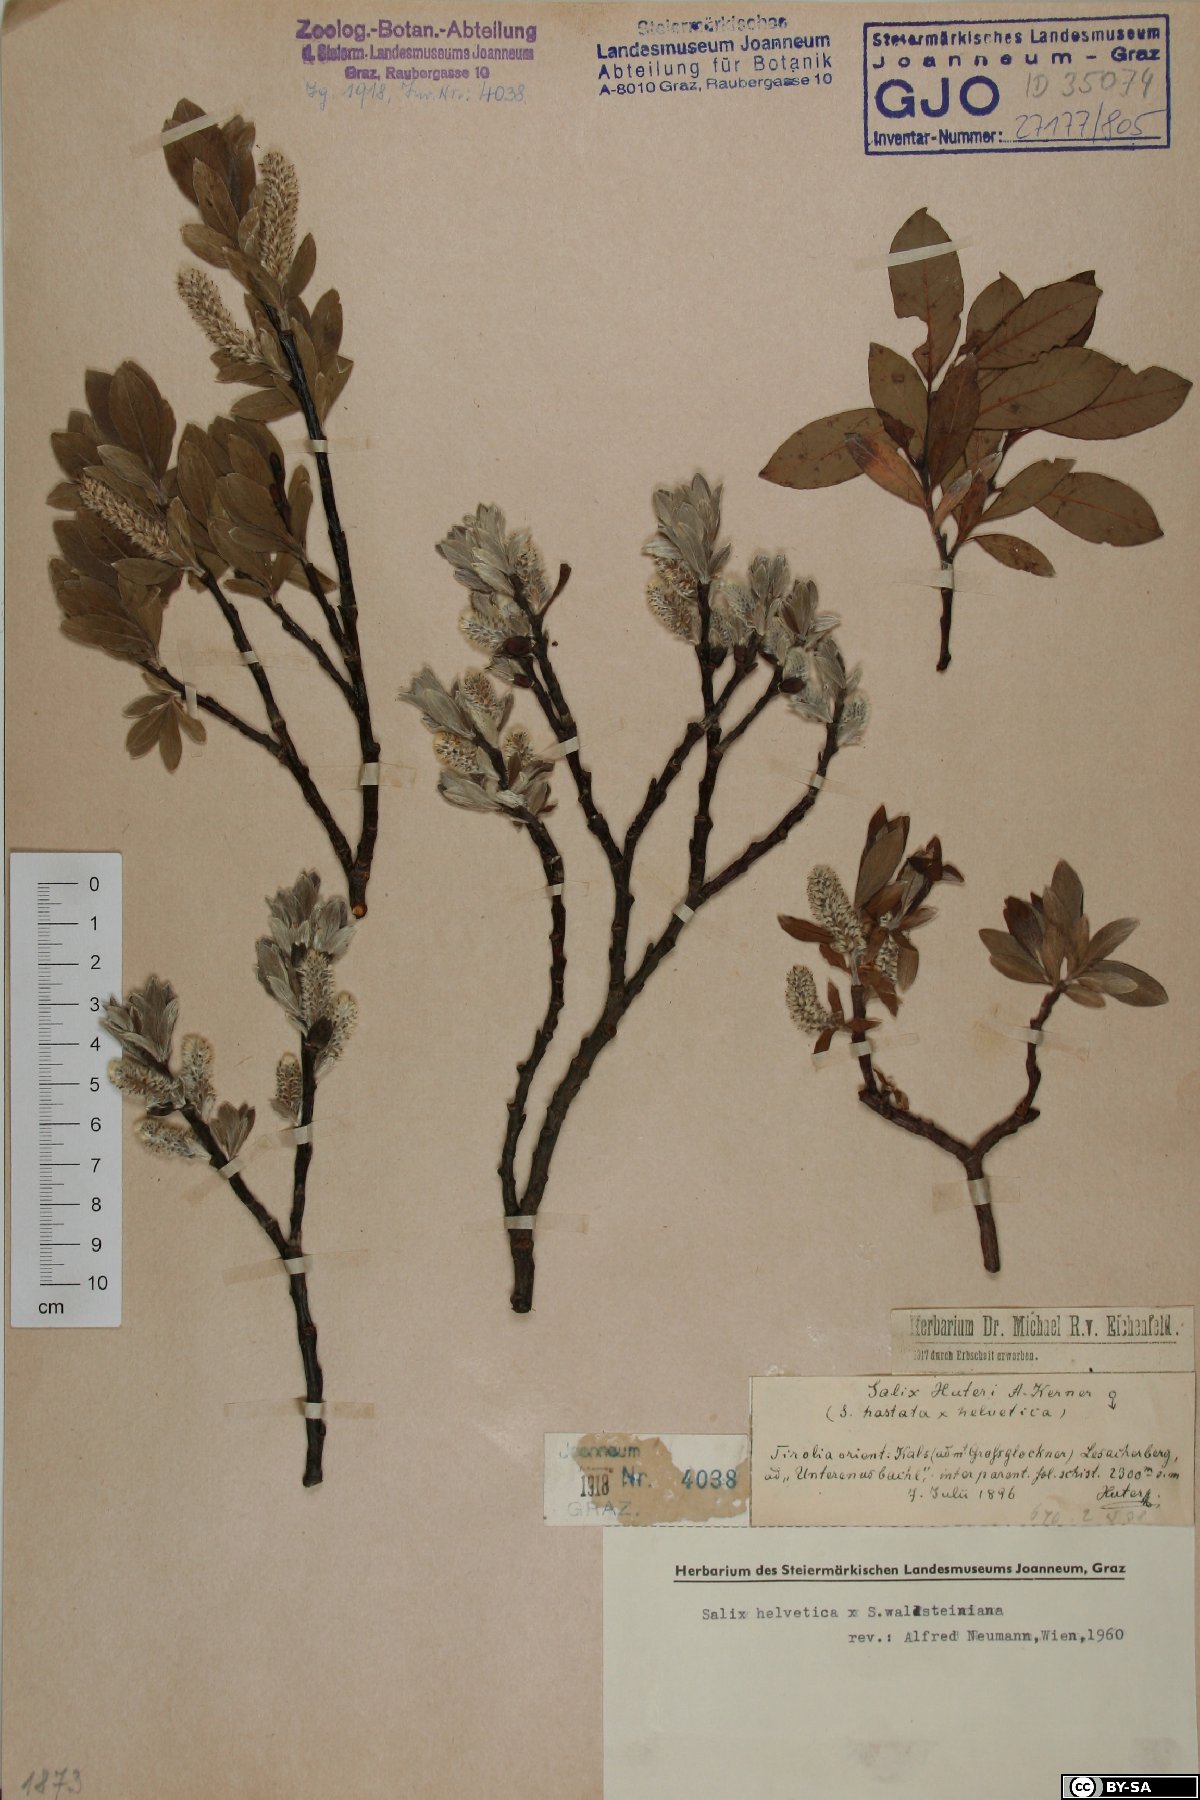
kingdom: Plantae
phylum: Tracheophyta
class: Magnoliopsida
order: Malpighiales
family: Salicaceae
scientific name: Salicaceae
